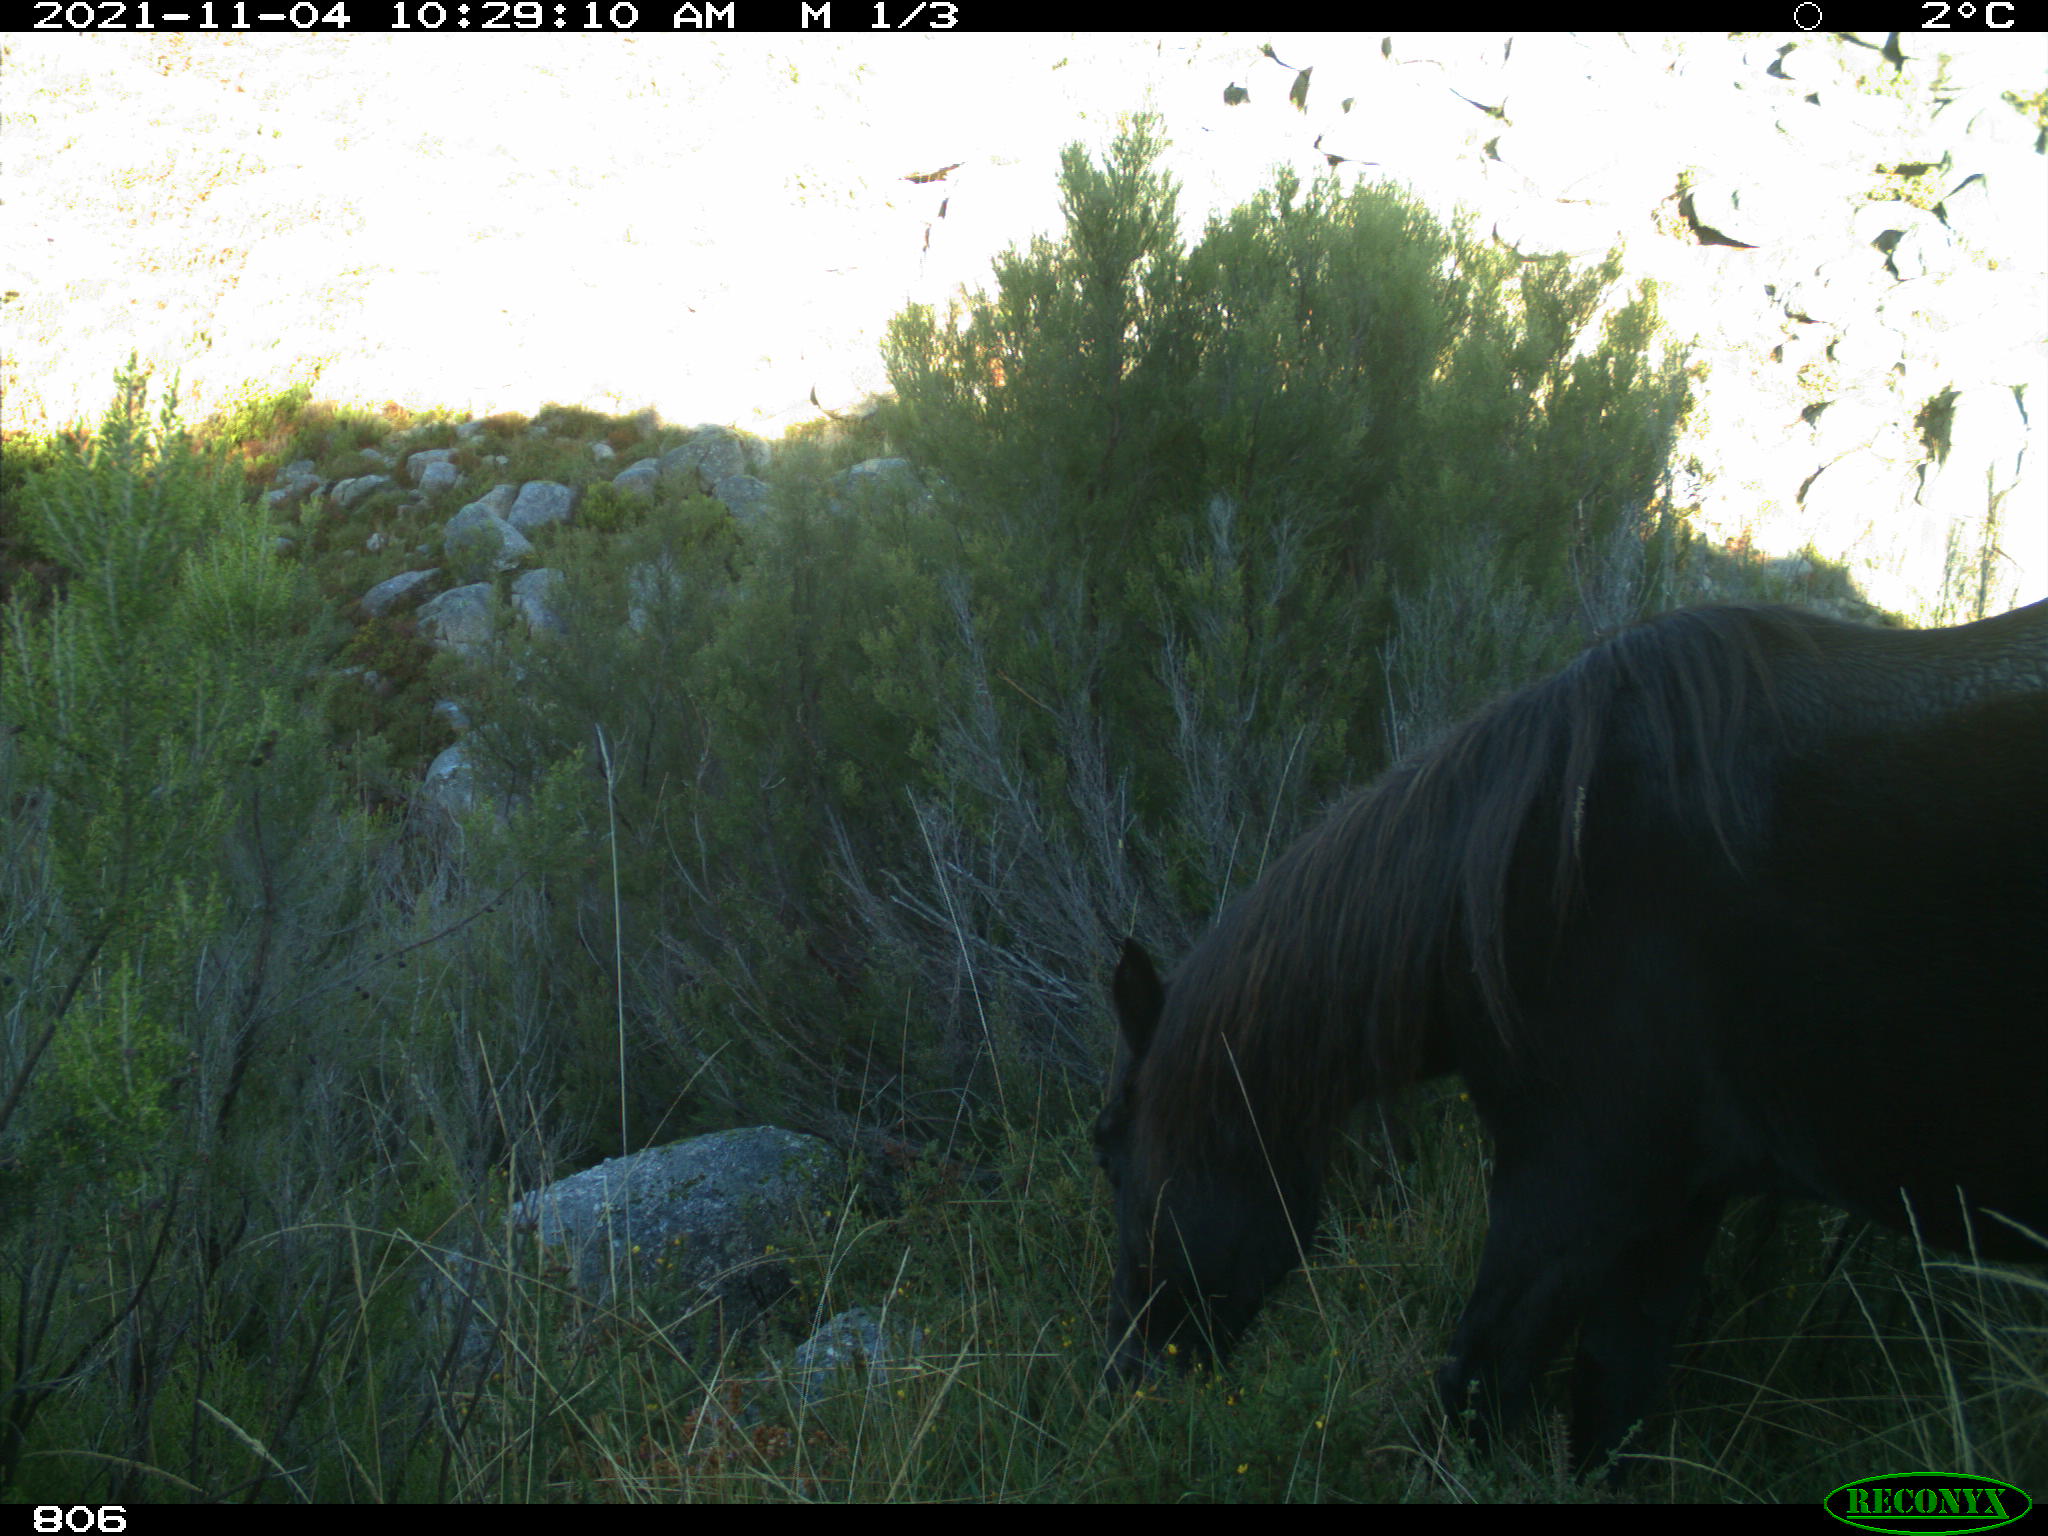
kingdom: Animalia
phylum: Chordata
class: Mammalia
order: Perissodactyla
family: Equidae
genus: Equus
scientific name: Equus caballus
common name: Horse
